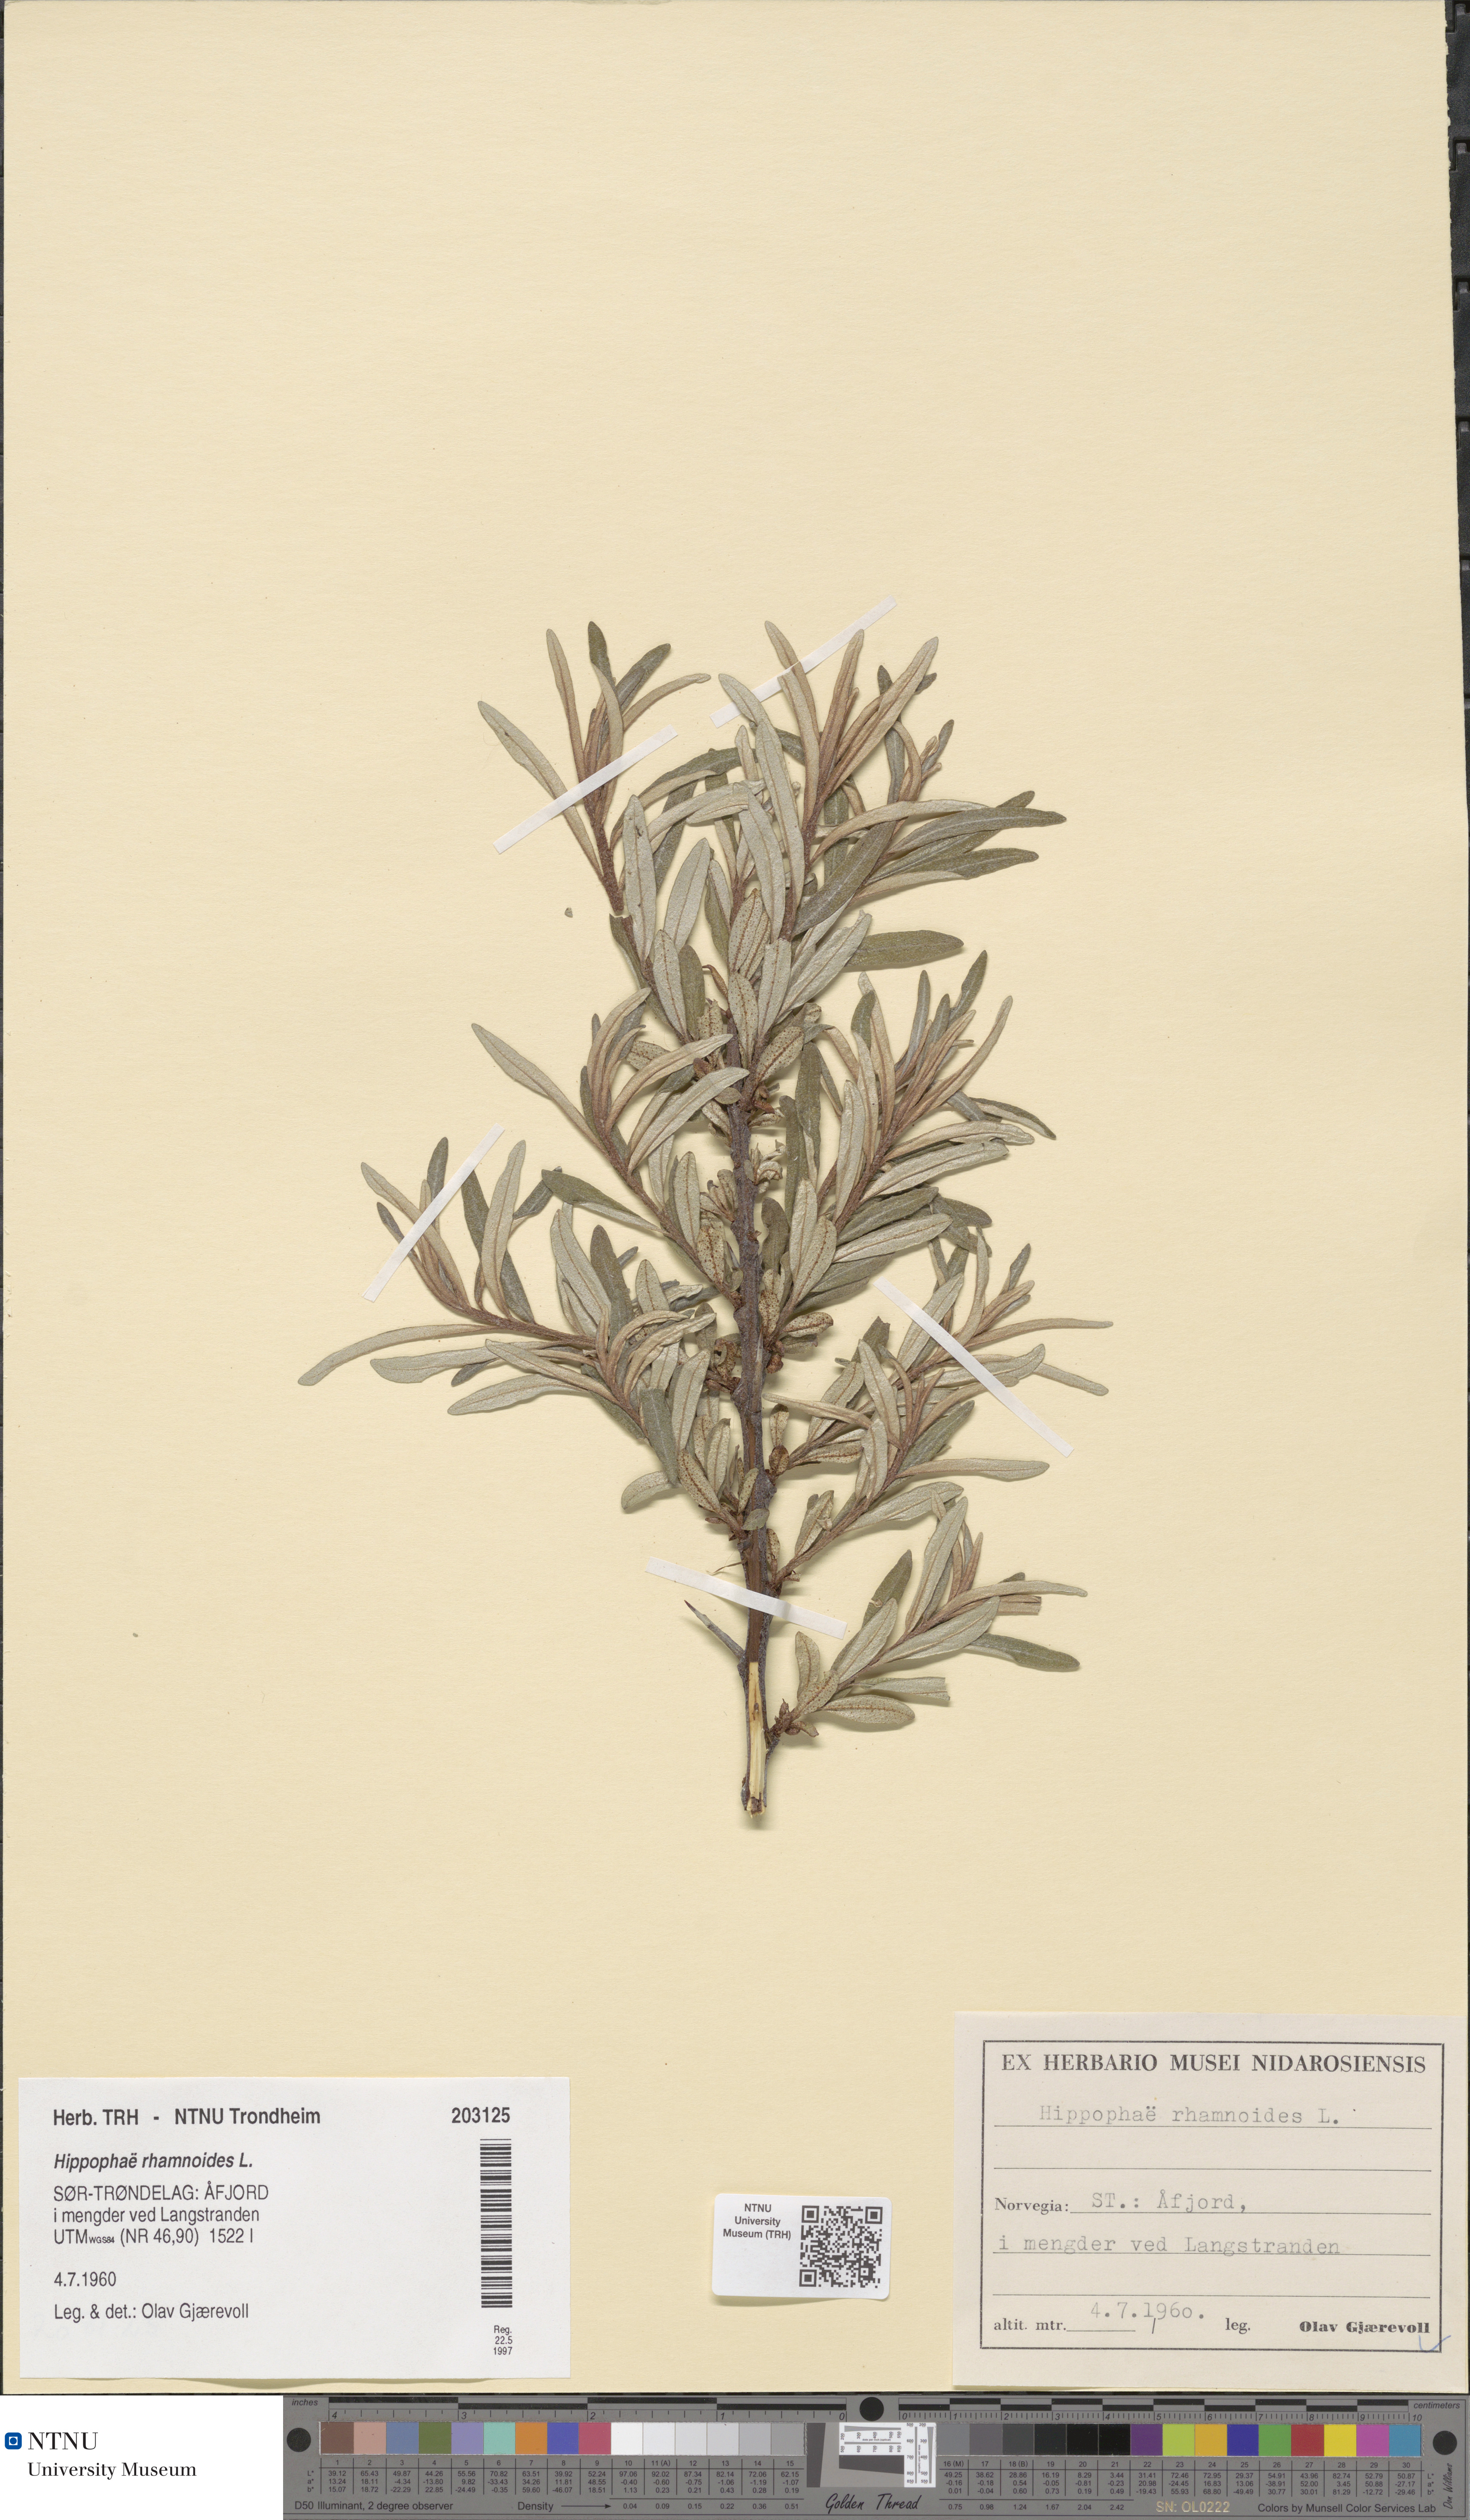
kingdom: Plantae
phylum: Tracheophyta
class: Magnoliopsida
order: Rosales
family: Elaeagnaceae
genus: Hippophae
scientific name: Hippophae rhamnoides
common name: Sea-buckthorn
